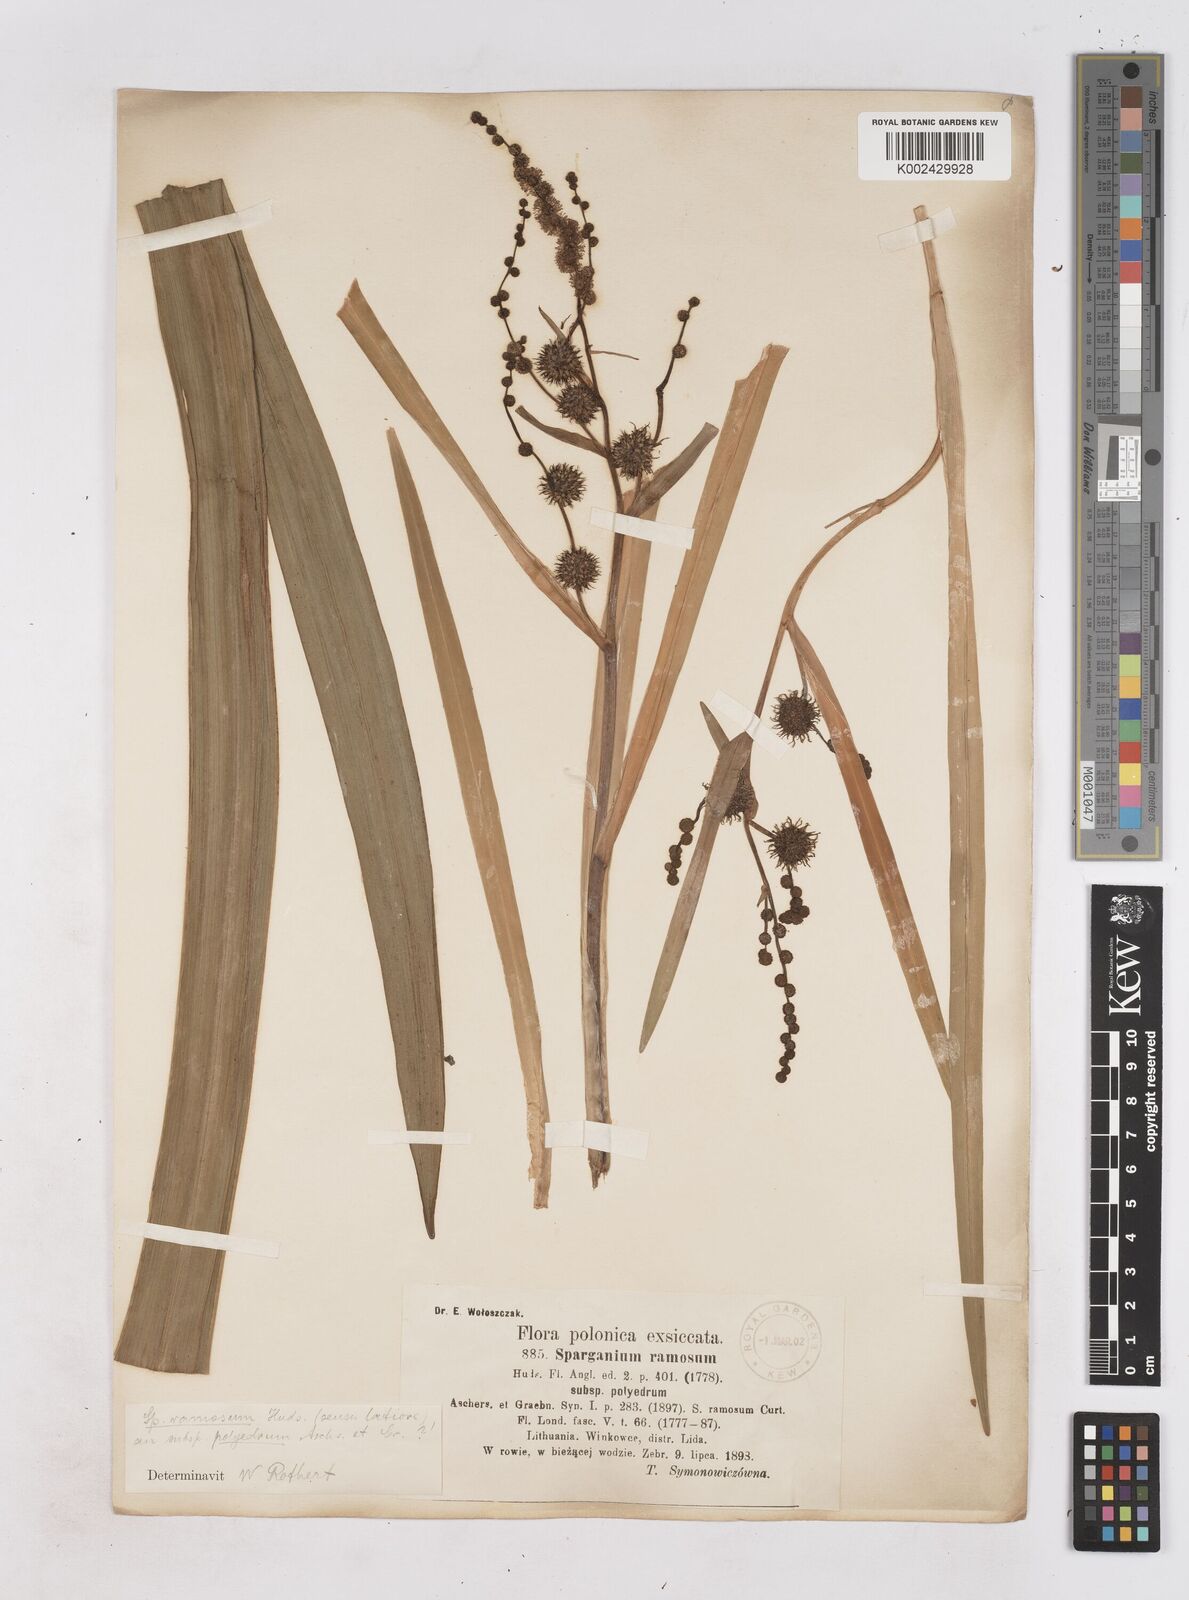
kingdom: Plantae
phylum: Tracheophyta
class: Liliopsida
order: Poales
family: Typhaceae
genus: Sparganium
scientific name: Sparganium erectum
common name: Branched bur-reed
